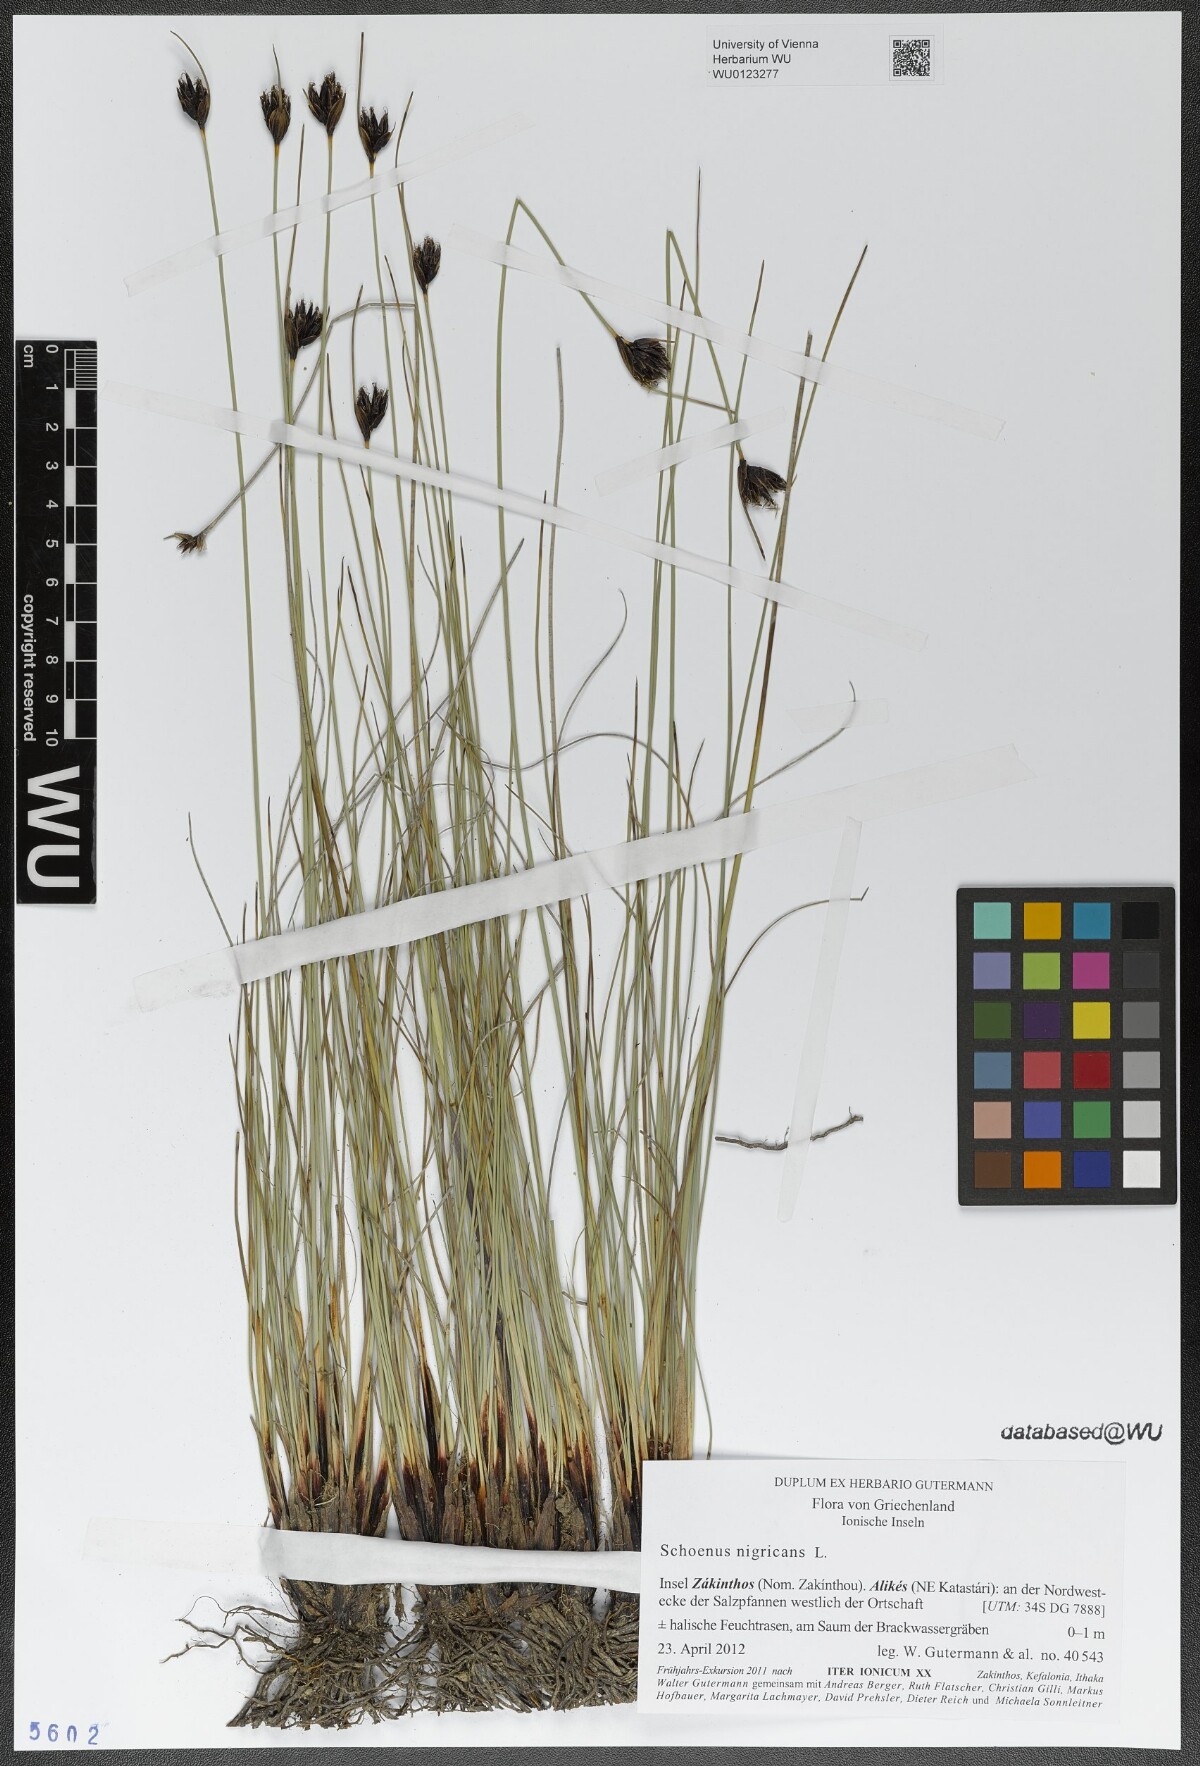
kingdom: Plantae
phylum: Tracheophyta
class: Liliopsida
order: Poales
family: Cyperaceae
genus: Schoenus
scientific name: Schoenus nigricans
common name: Black bog-rush
